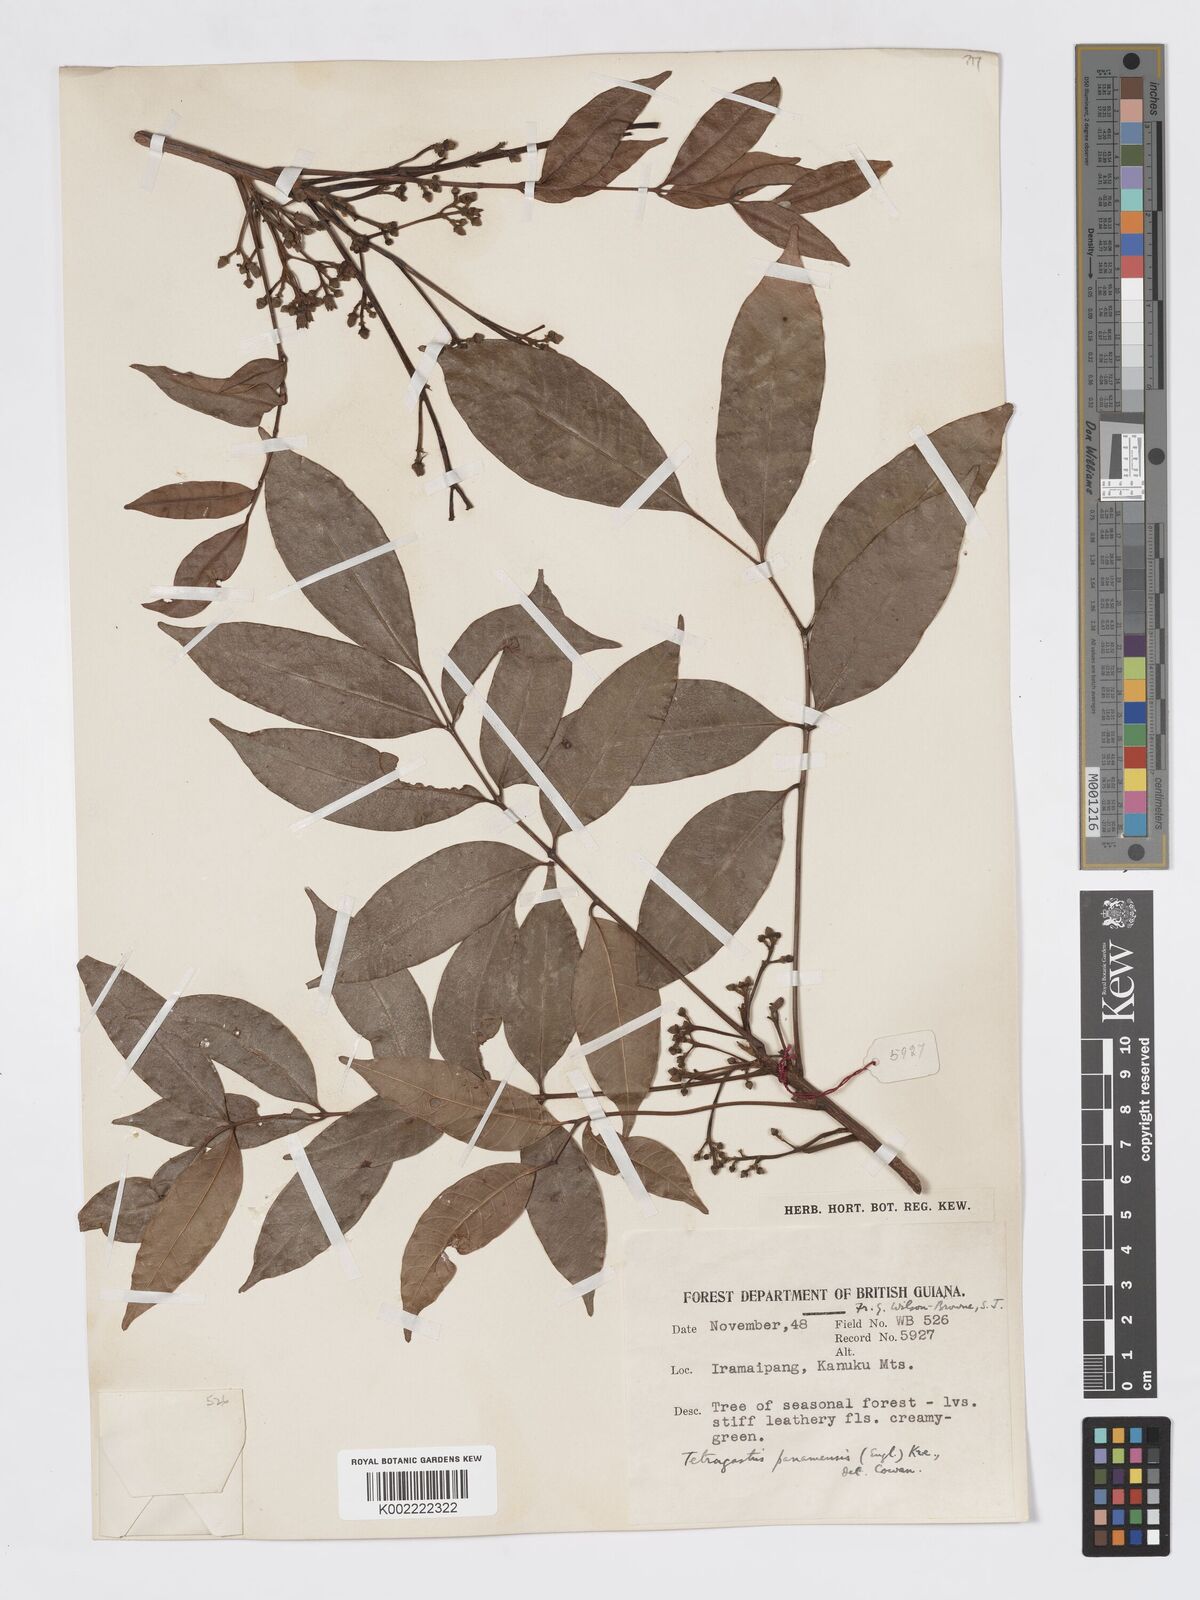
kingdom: Plantae
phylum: Tracheophyta
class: Magnoliopsida
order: Sapindales
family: Burseraceae
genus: Tetragastris
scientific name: Tetragastris panamensis
